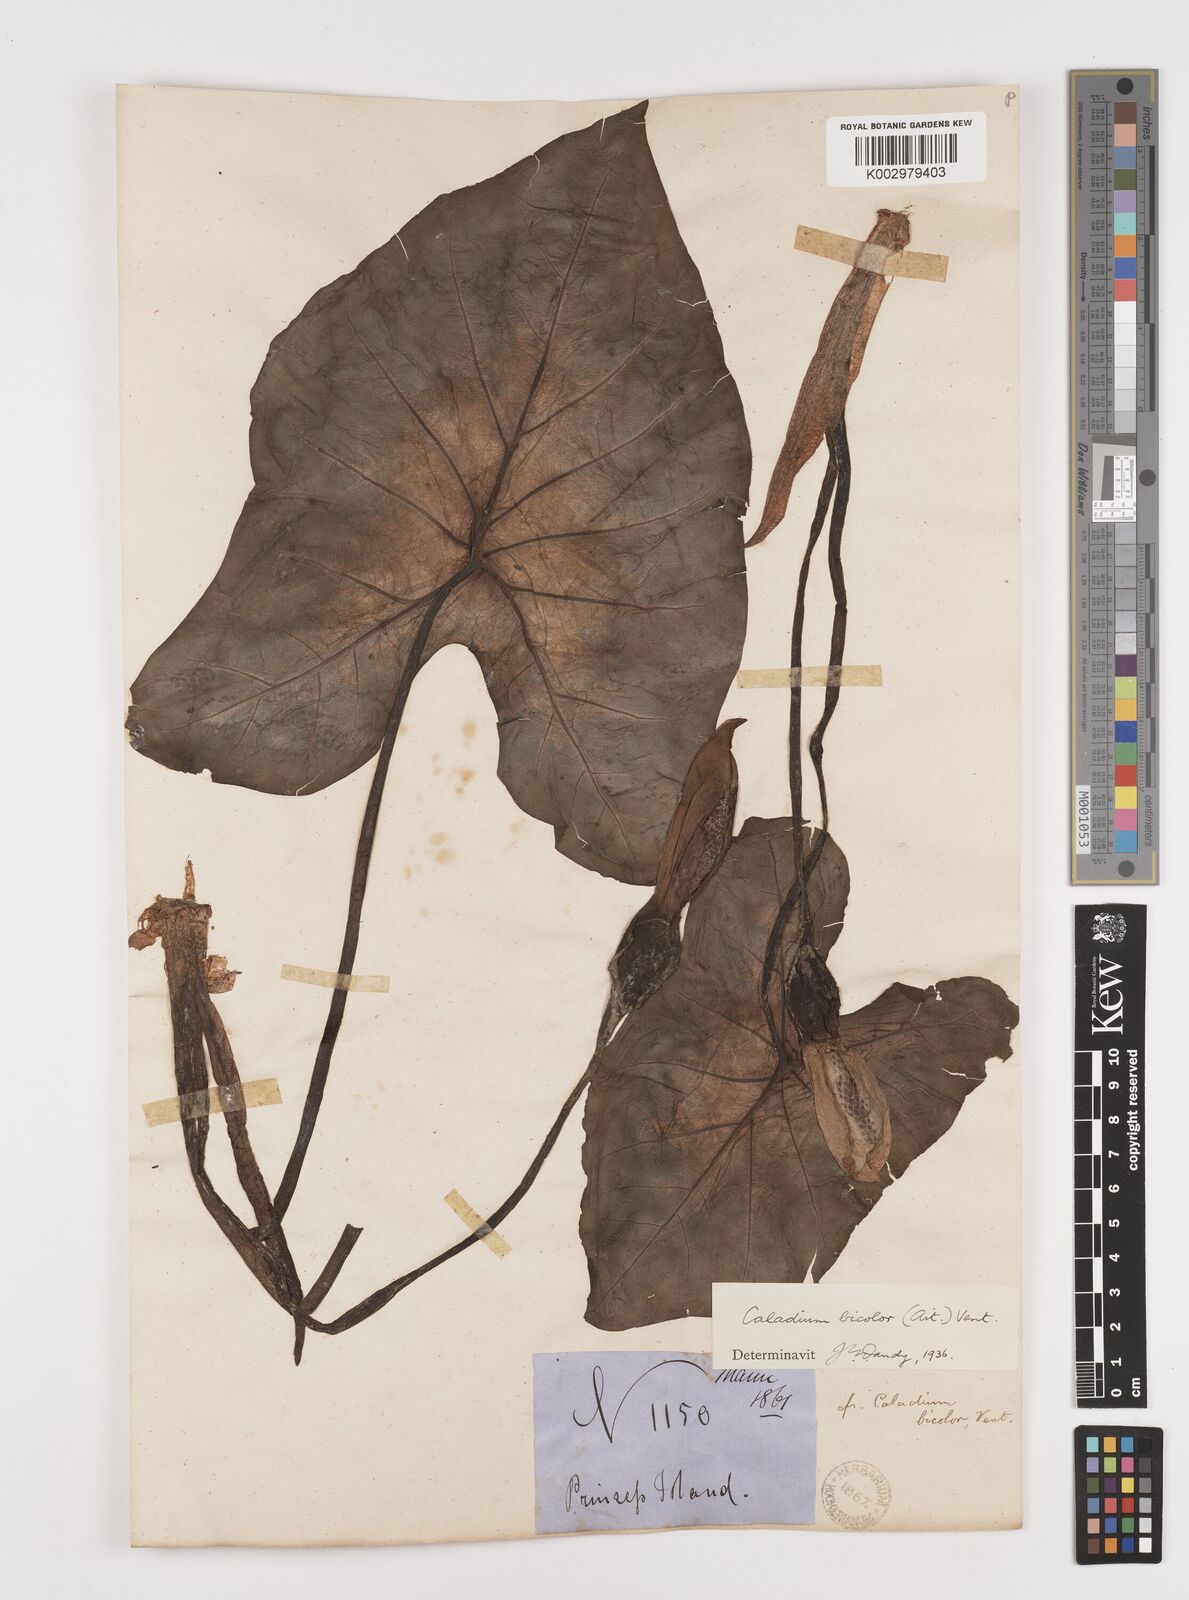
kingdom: Plantae
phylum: Tracheophyta
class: Liliopsida
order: Alismatales
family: Araceae
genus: Caladium
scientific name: Caladium bicolor
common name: Artist's pallet
